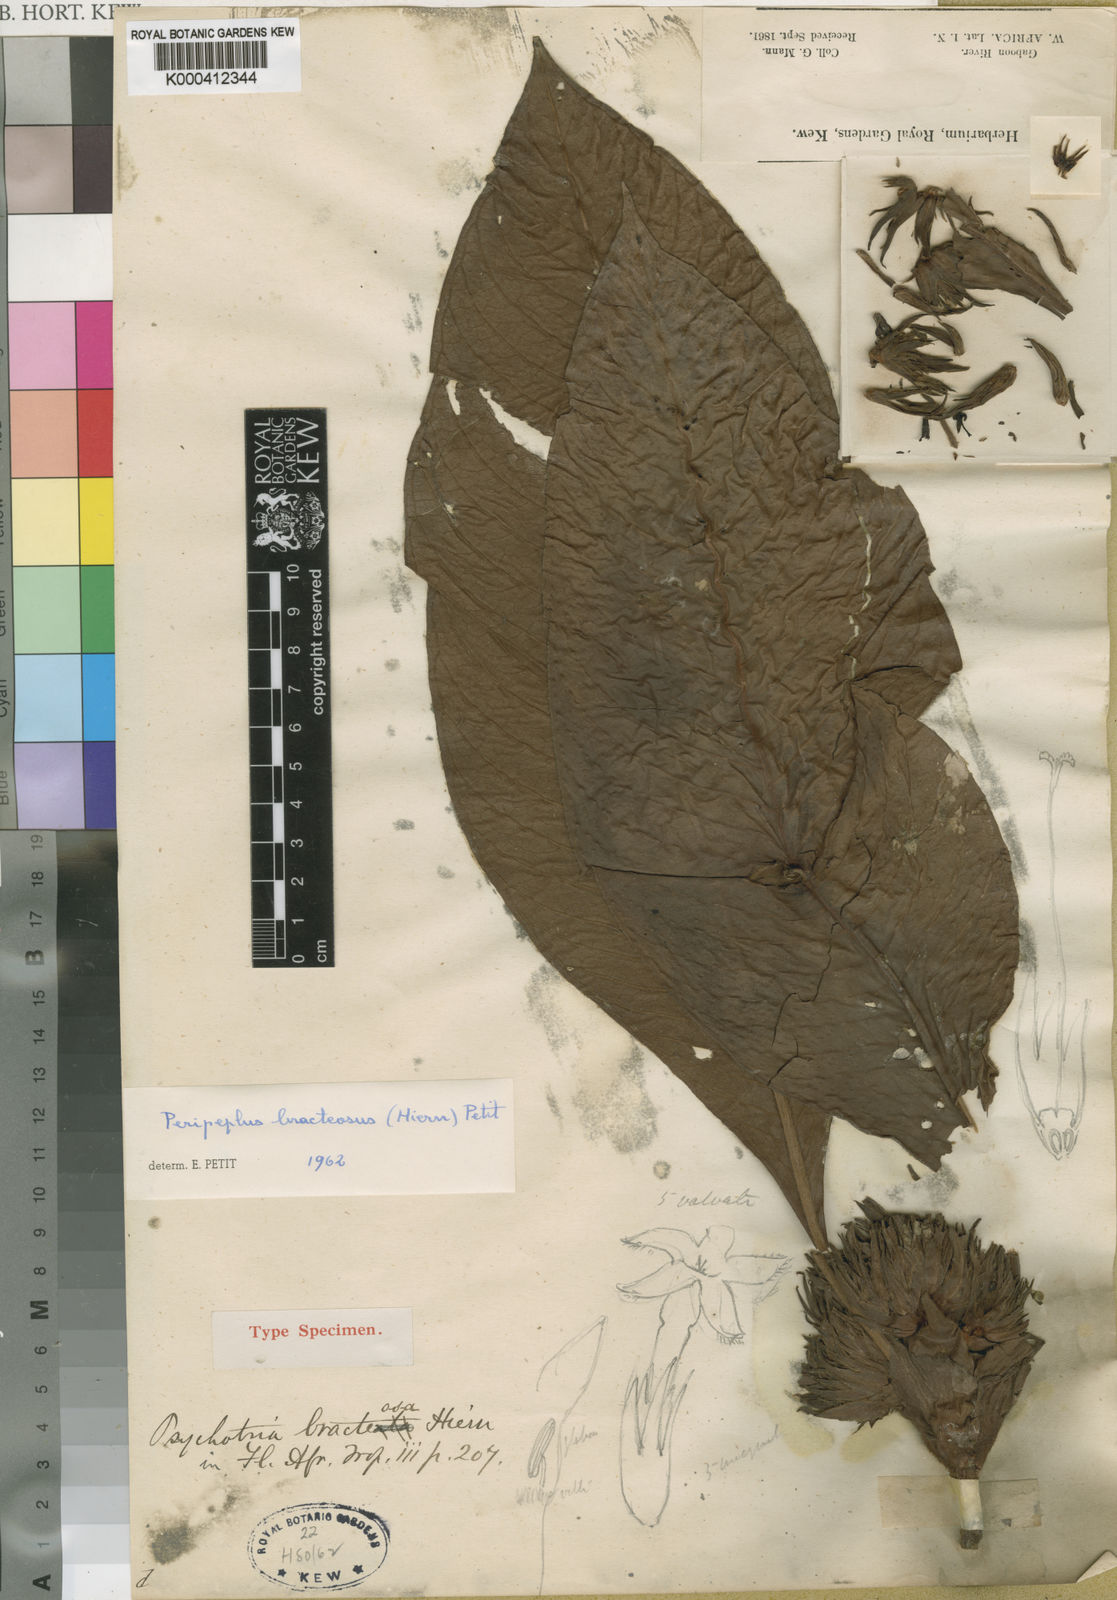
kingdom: Plantae
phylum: Tracheophyta
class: Magnoliopsida
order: Gentianales
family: Rubiaceae
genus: Peripeplus
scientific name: Peripeplus bracteosus
